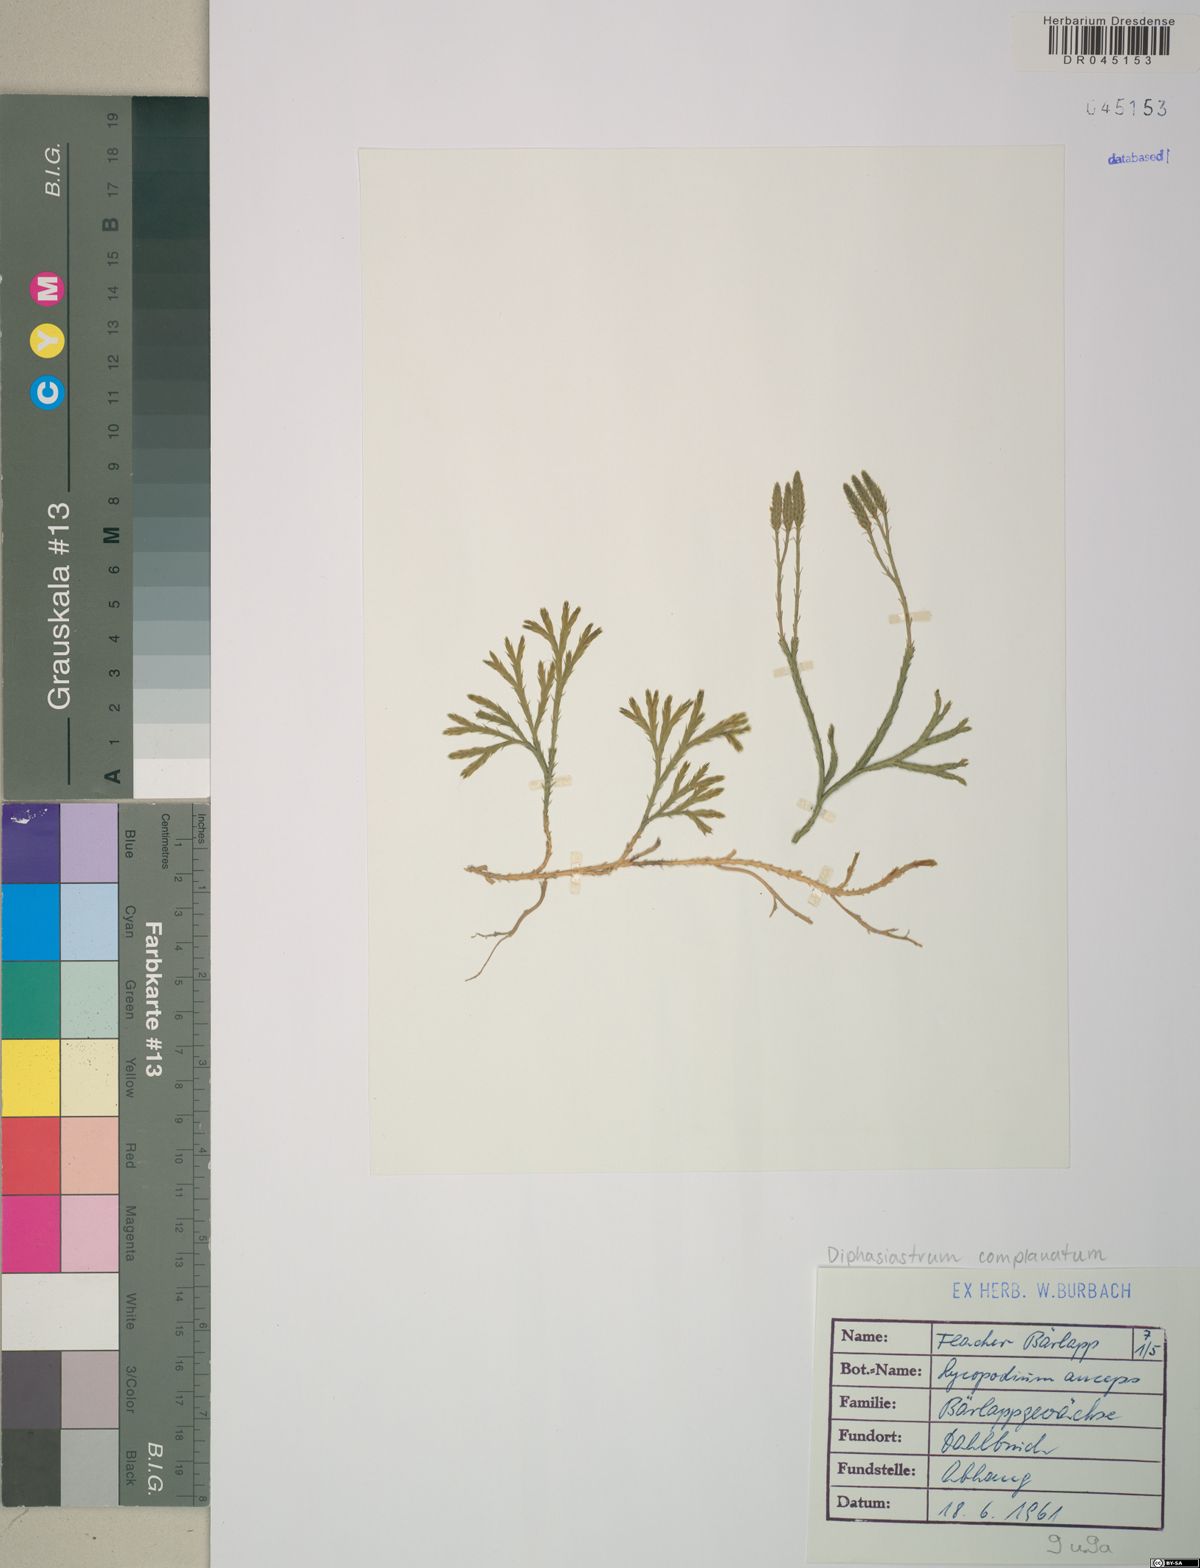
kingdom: Plantae
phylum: Tracheophyta
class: Lycopodiopsida
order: Lycopodiales
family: Lycopodiaceae
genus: Diphasiastrum
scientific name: Diphasiastrum complanatum
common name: Northern running-pine
